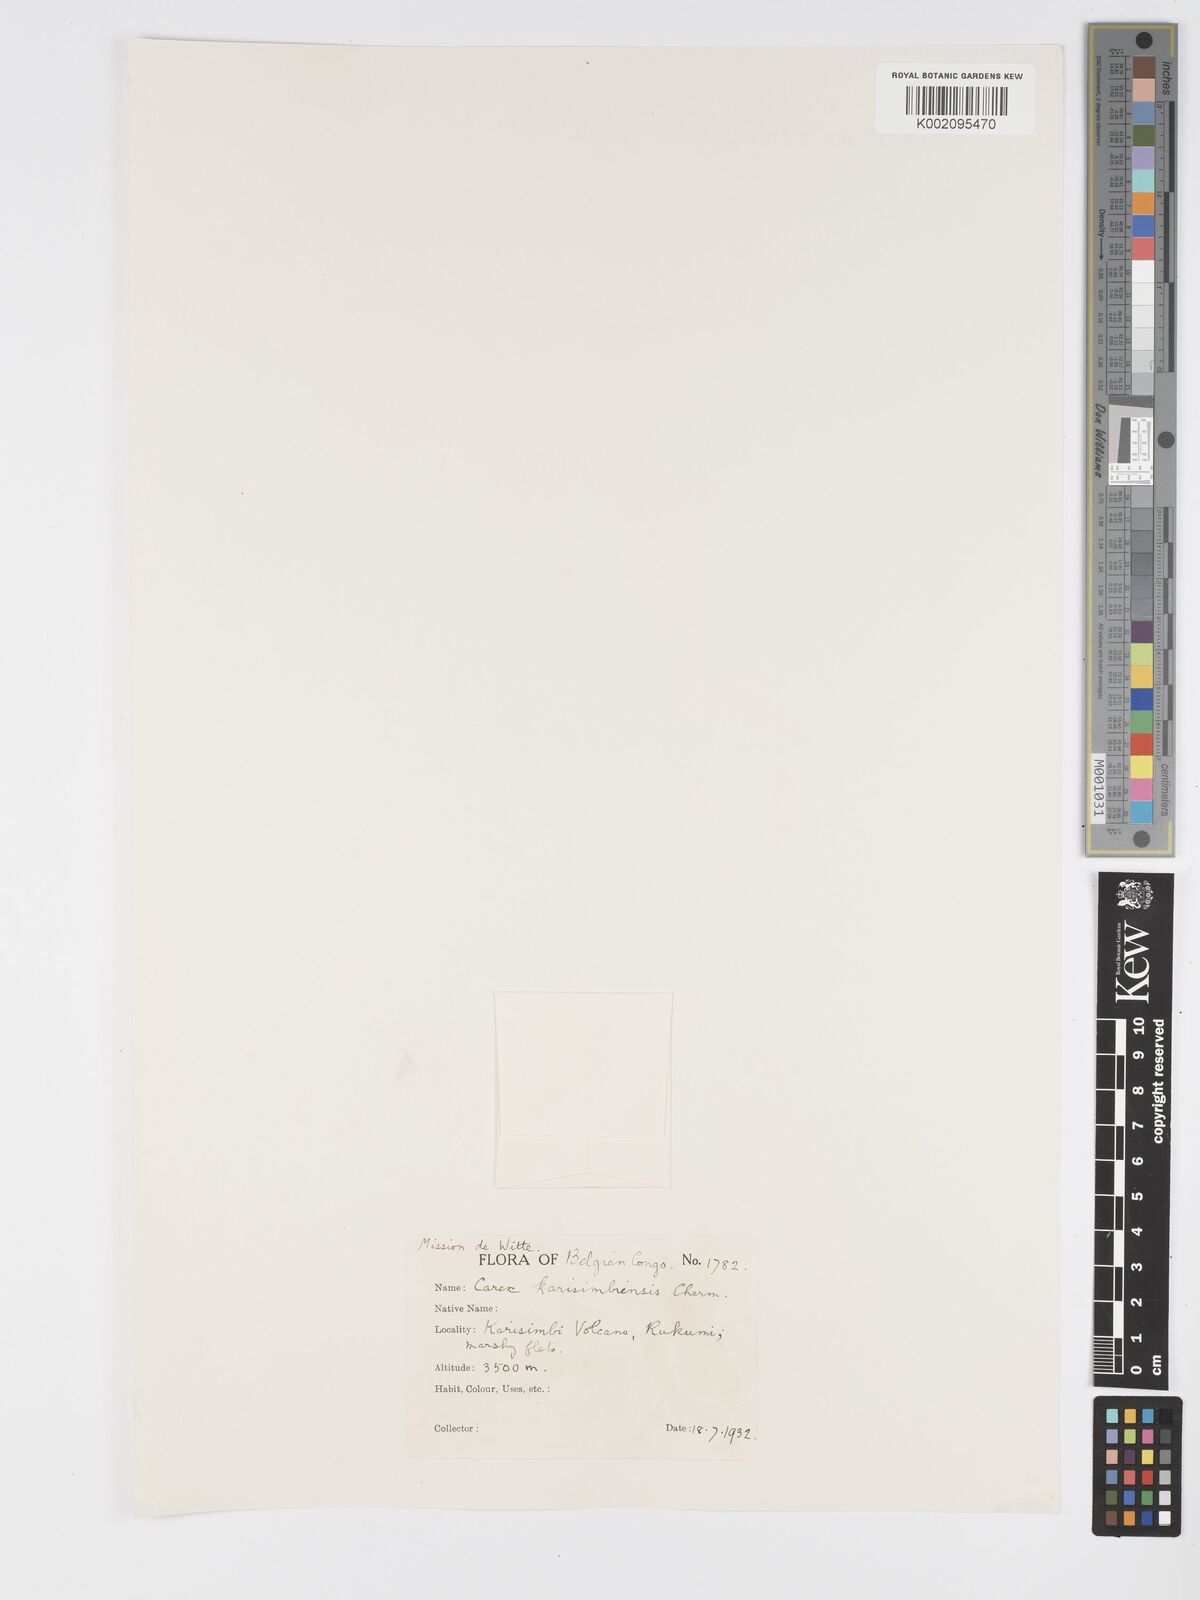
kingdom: Plantae
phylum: Tracheophyta
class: Liliopsida
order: Poales
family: Cyperaceae
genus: Carex
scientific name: Carex simensis
